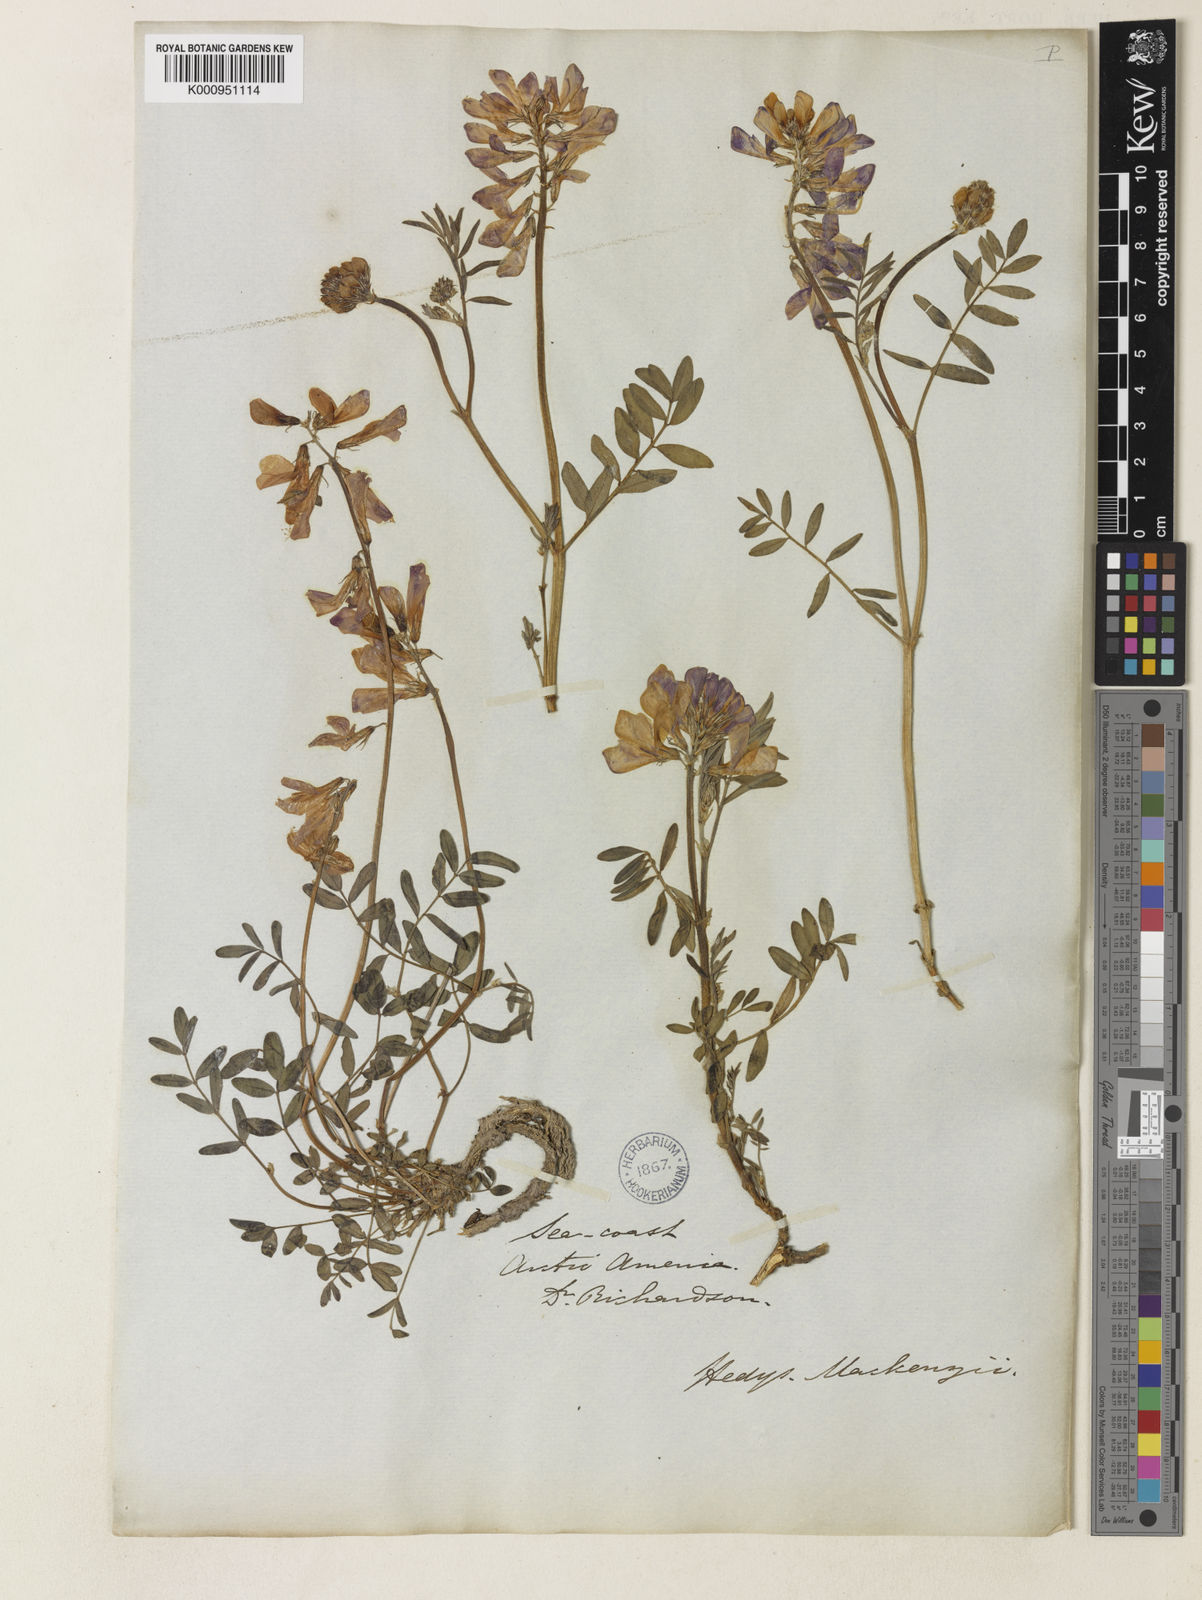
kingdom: Plantae
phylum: Tracheophyta
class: Magnoliopsida
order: Fabales
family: Fabaceae
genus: Hedysarum
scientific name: Hedysarum boreale
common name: Northern sweet-vetch
